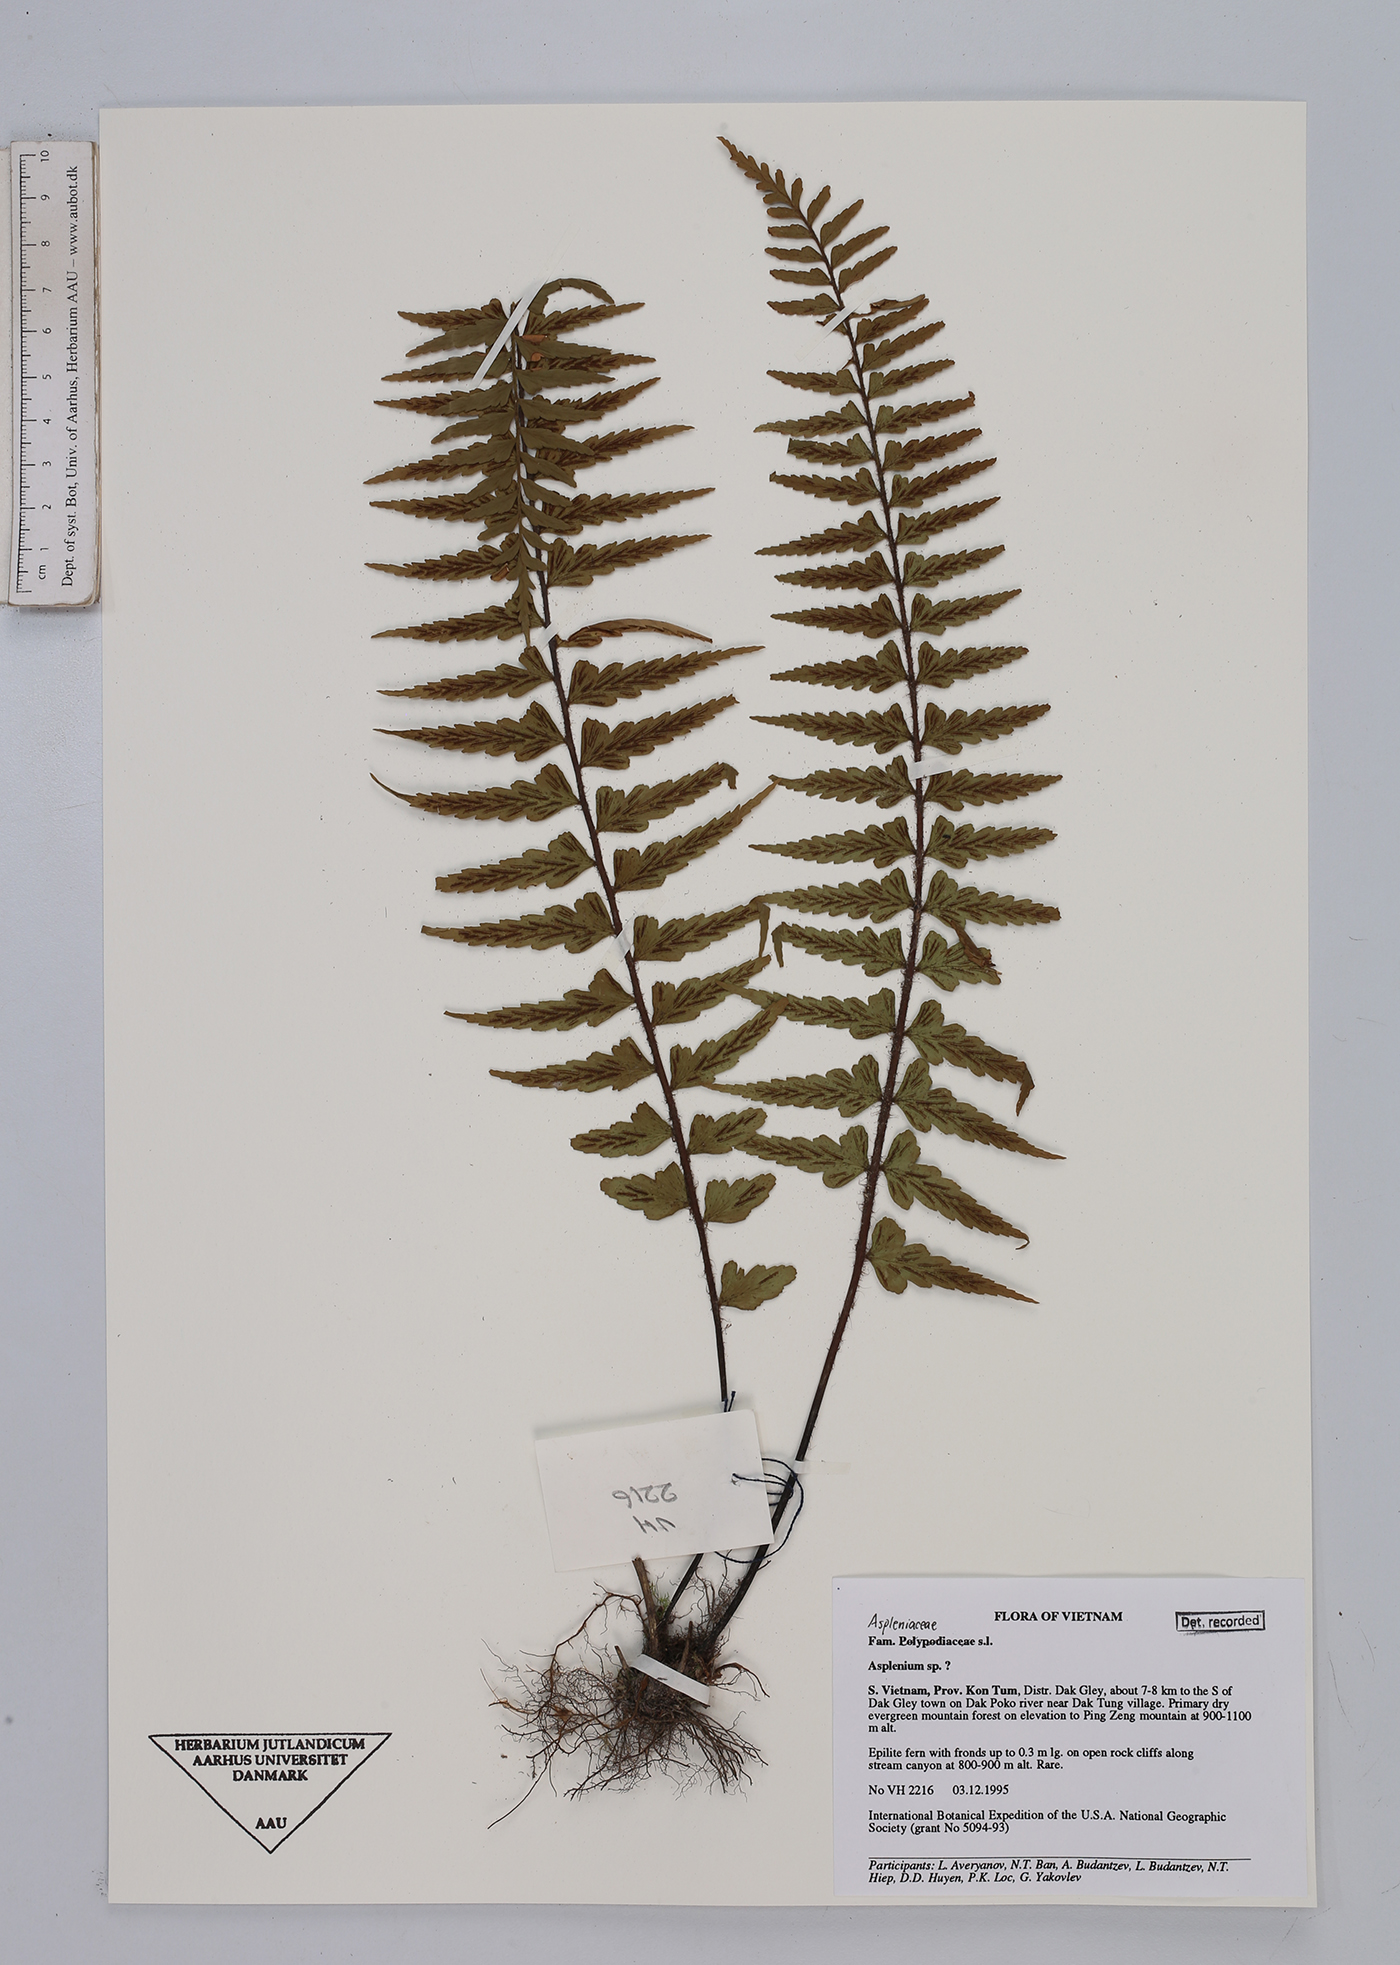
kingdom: Plantae
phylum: Tracheophyta
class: Polypodiopsida
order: Polypodiales
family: Aspleniaceae
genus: Asplenium
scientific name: Asplenium
